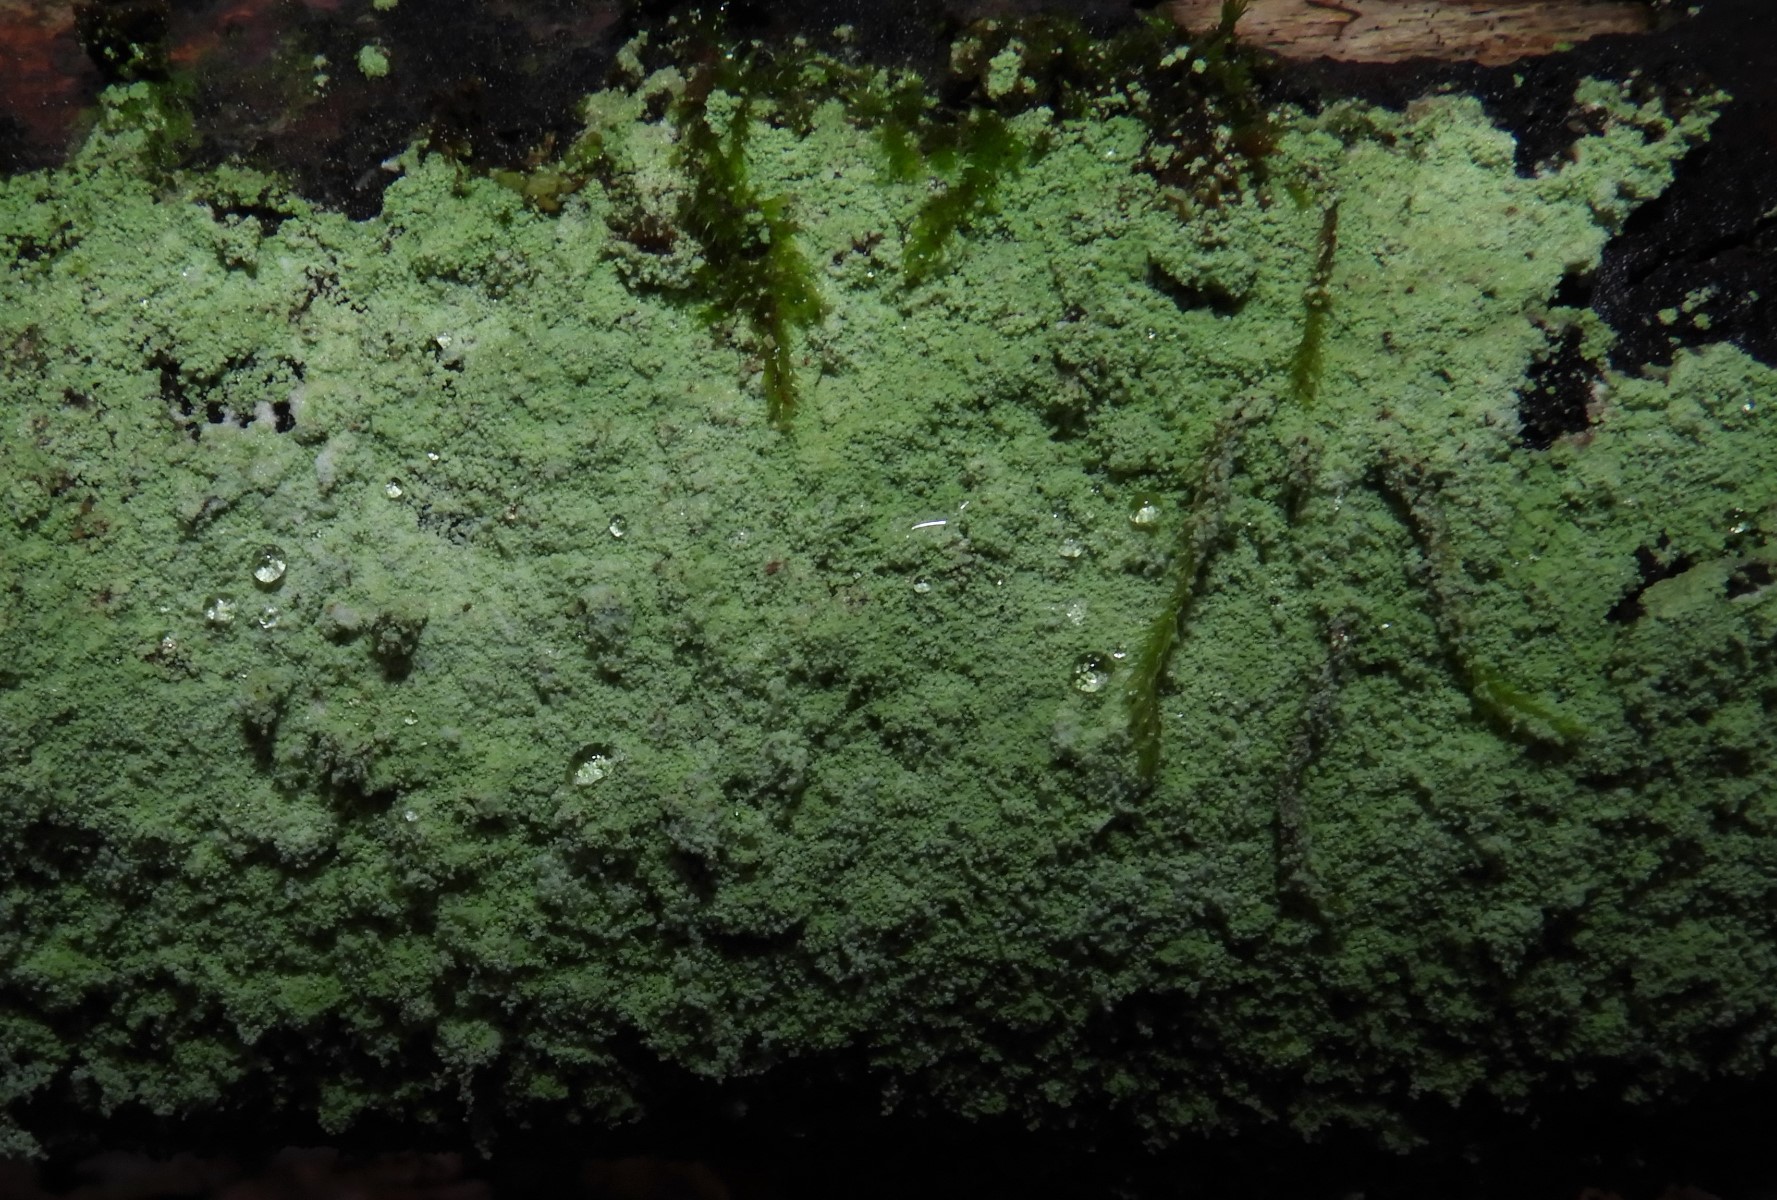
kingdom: Fungi
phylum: Ascomycota
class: Lecanoromycetes
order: Lecanorales
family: Stereocaulaceae
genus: Lepraria
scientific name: Lepraria
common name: støvlav
